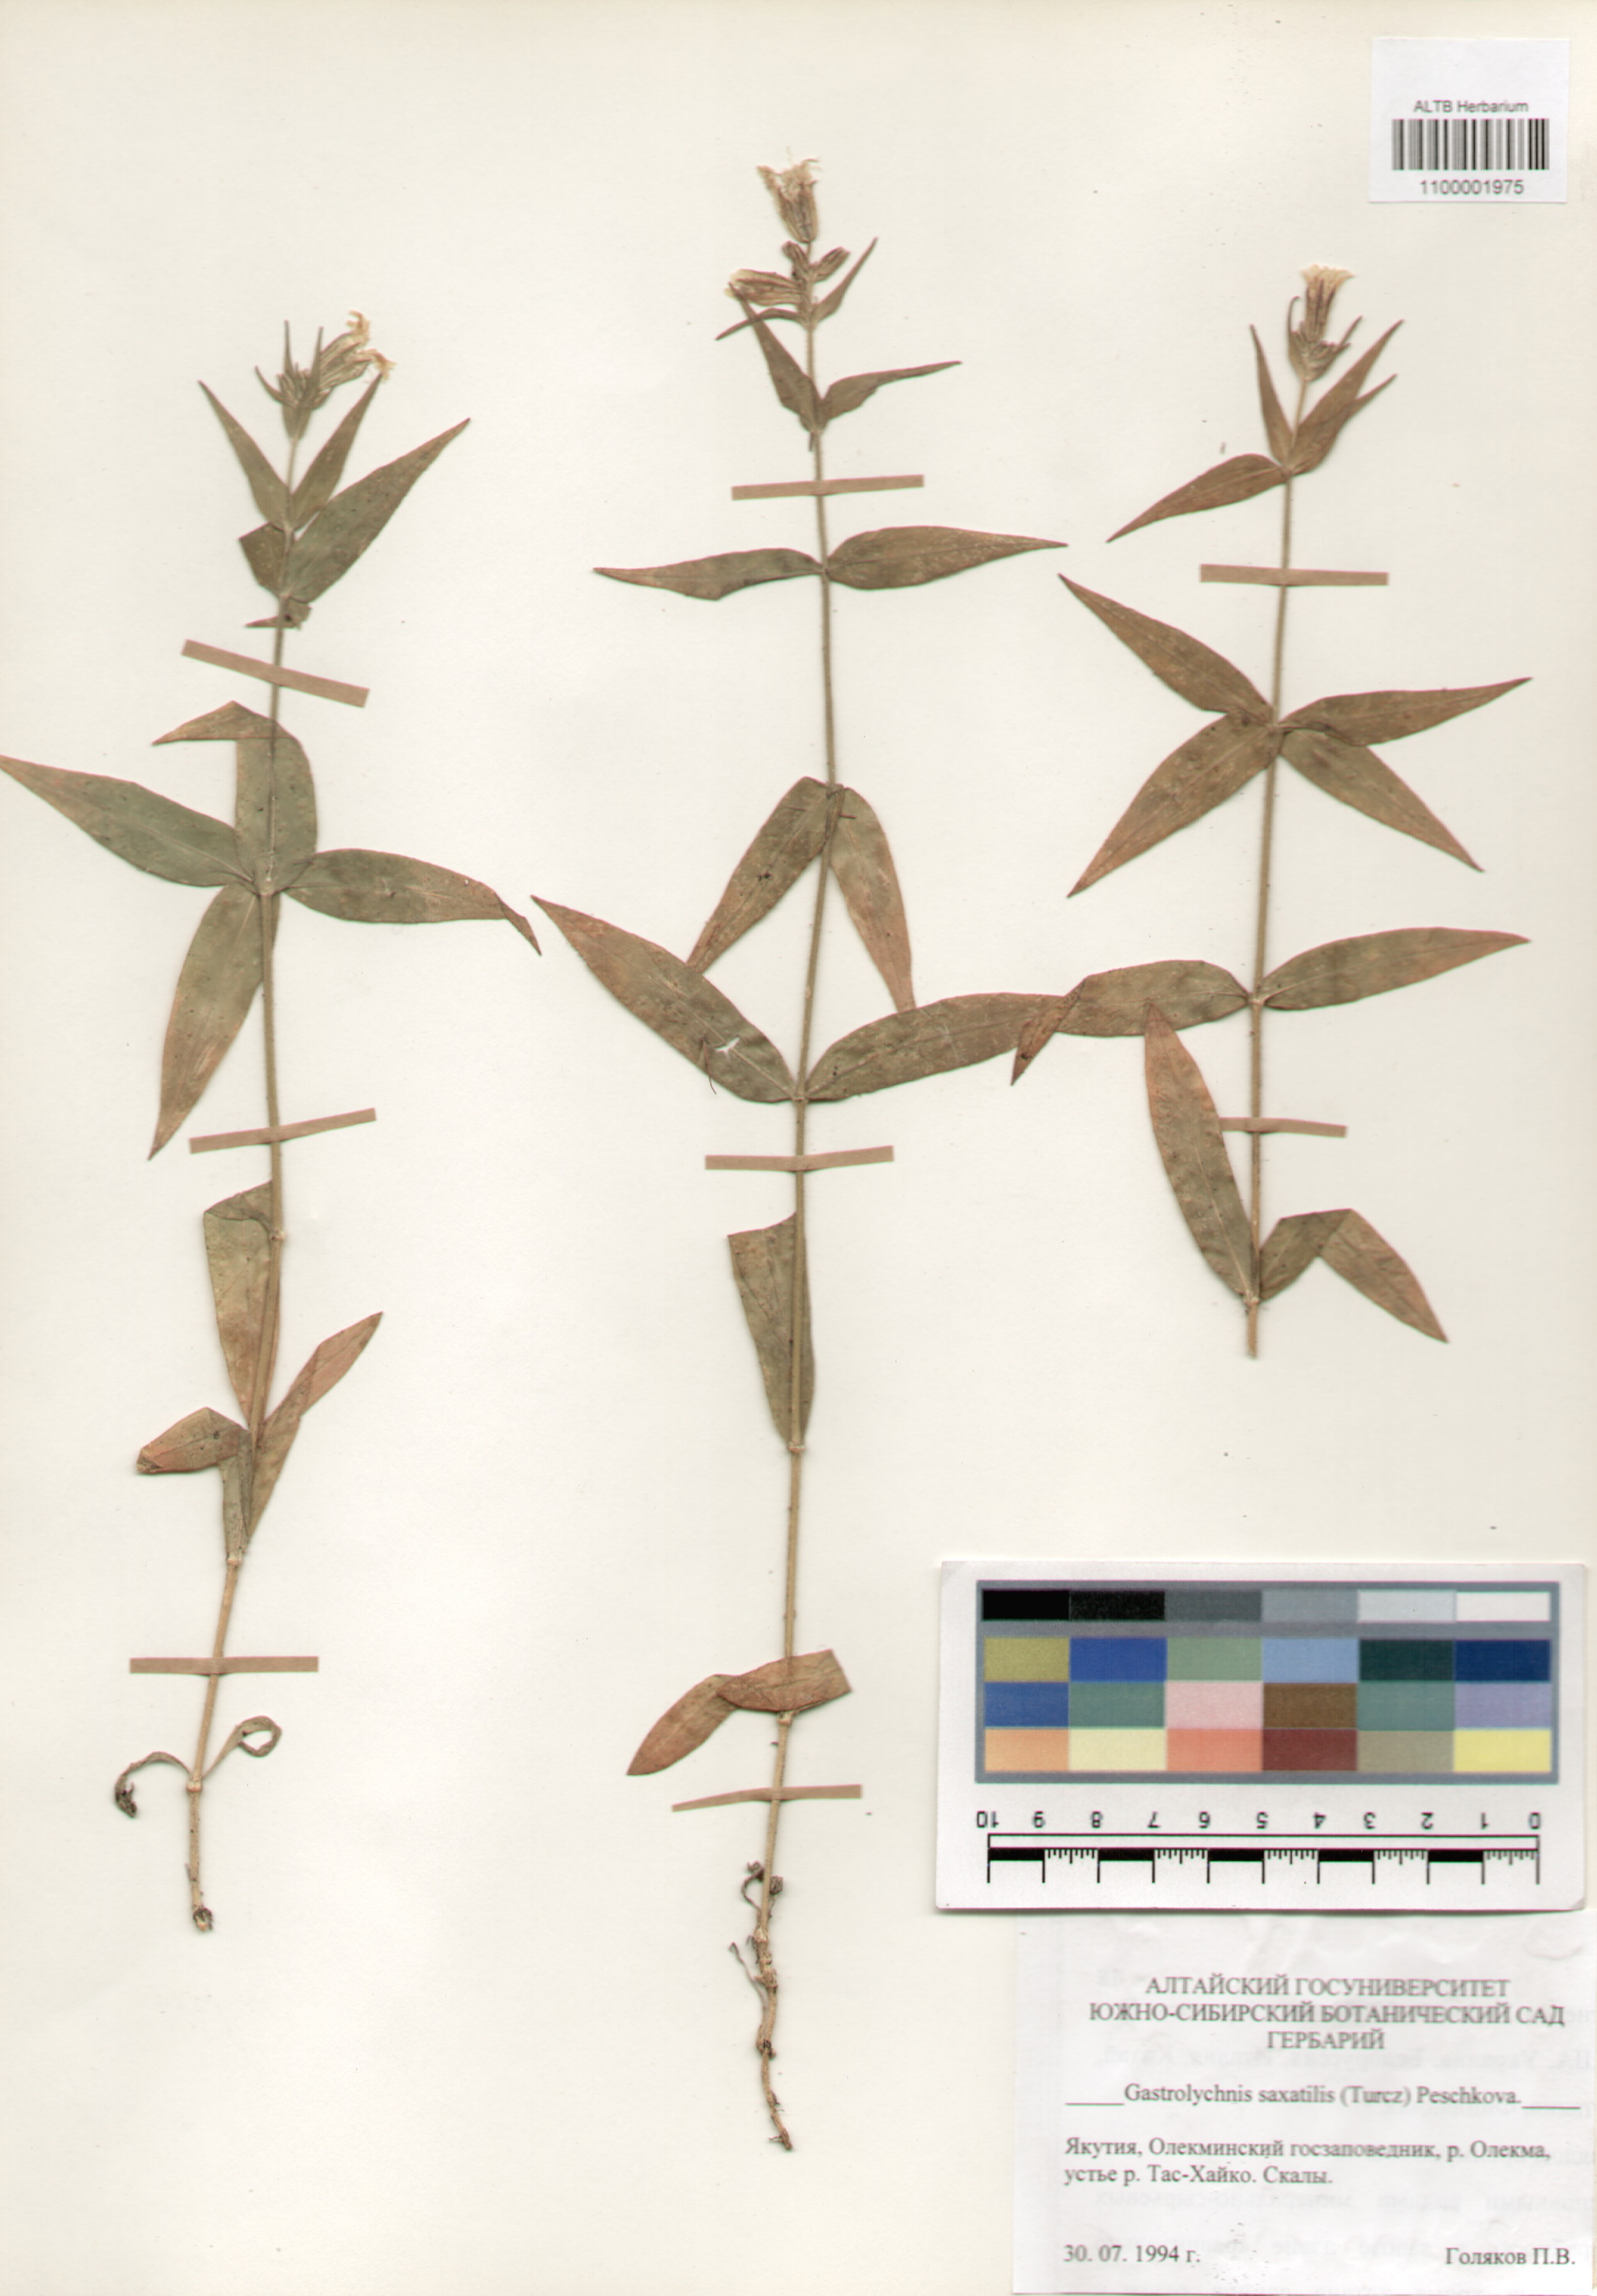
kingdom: Plantae
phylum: Tracheophyta
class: Magnoliopsida
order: Caryophyllales
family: Caryophyllaceae
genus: Silene
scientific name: Silene tolmatchevii
